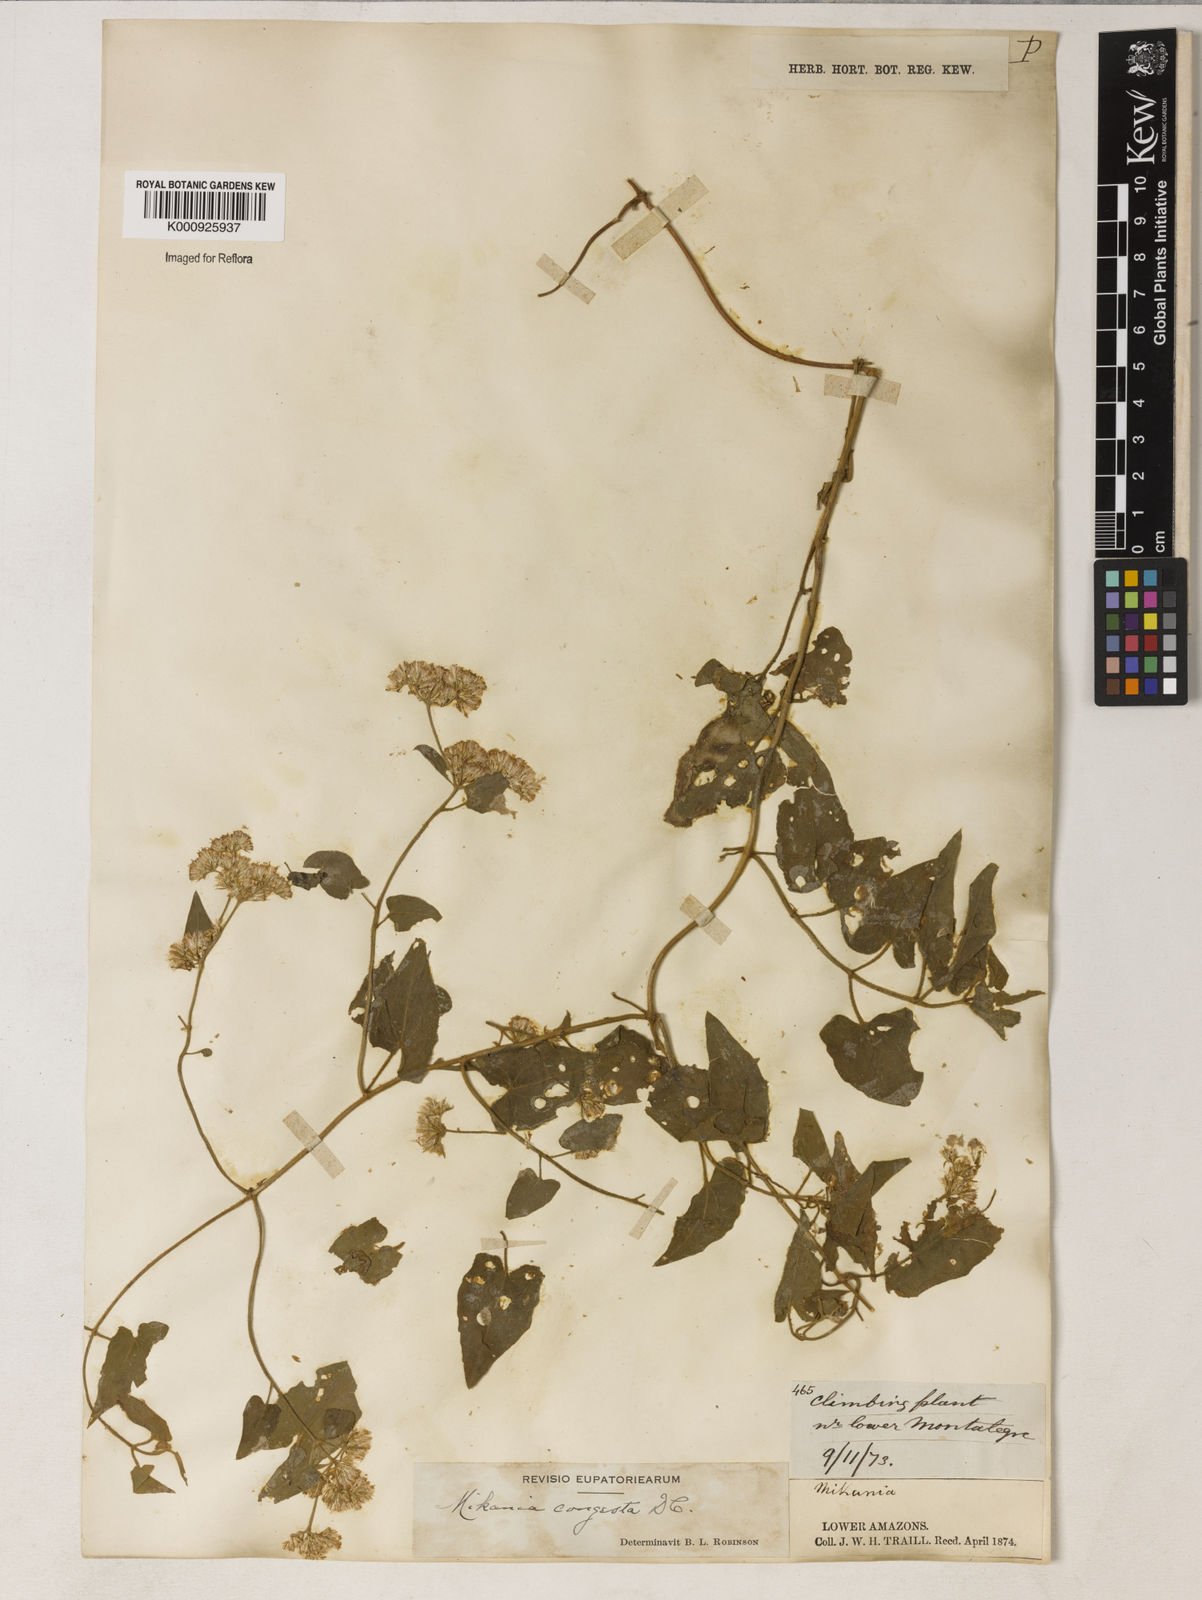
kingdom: Plantae
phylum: Tracheophyta
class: Magnoliopsida
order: Asterales
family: Asteraceae
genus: Mikania
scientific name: Mikania congesta
